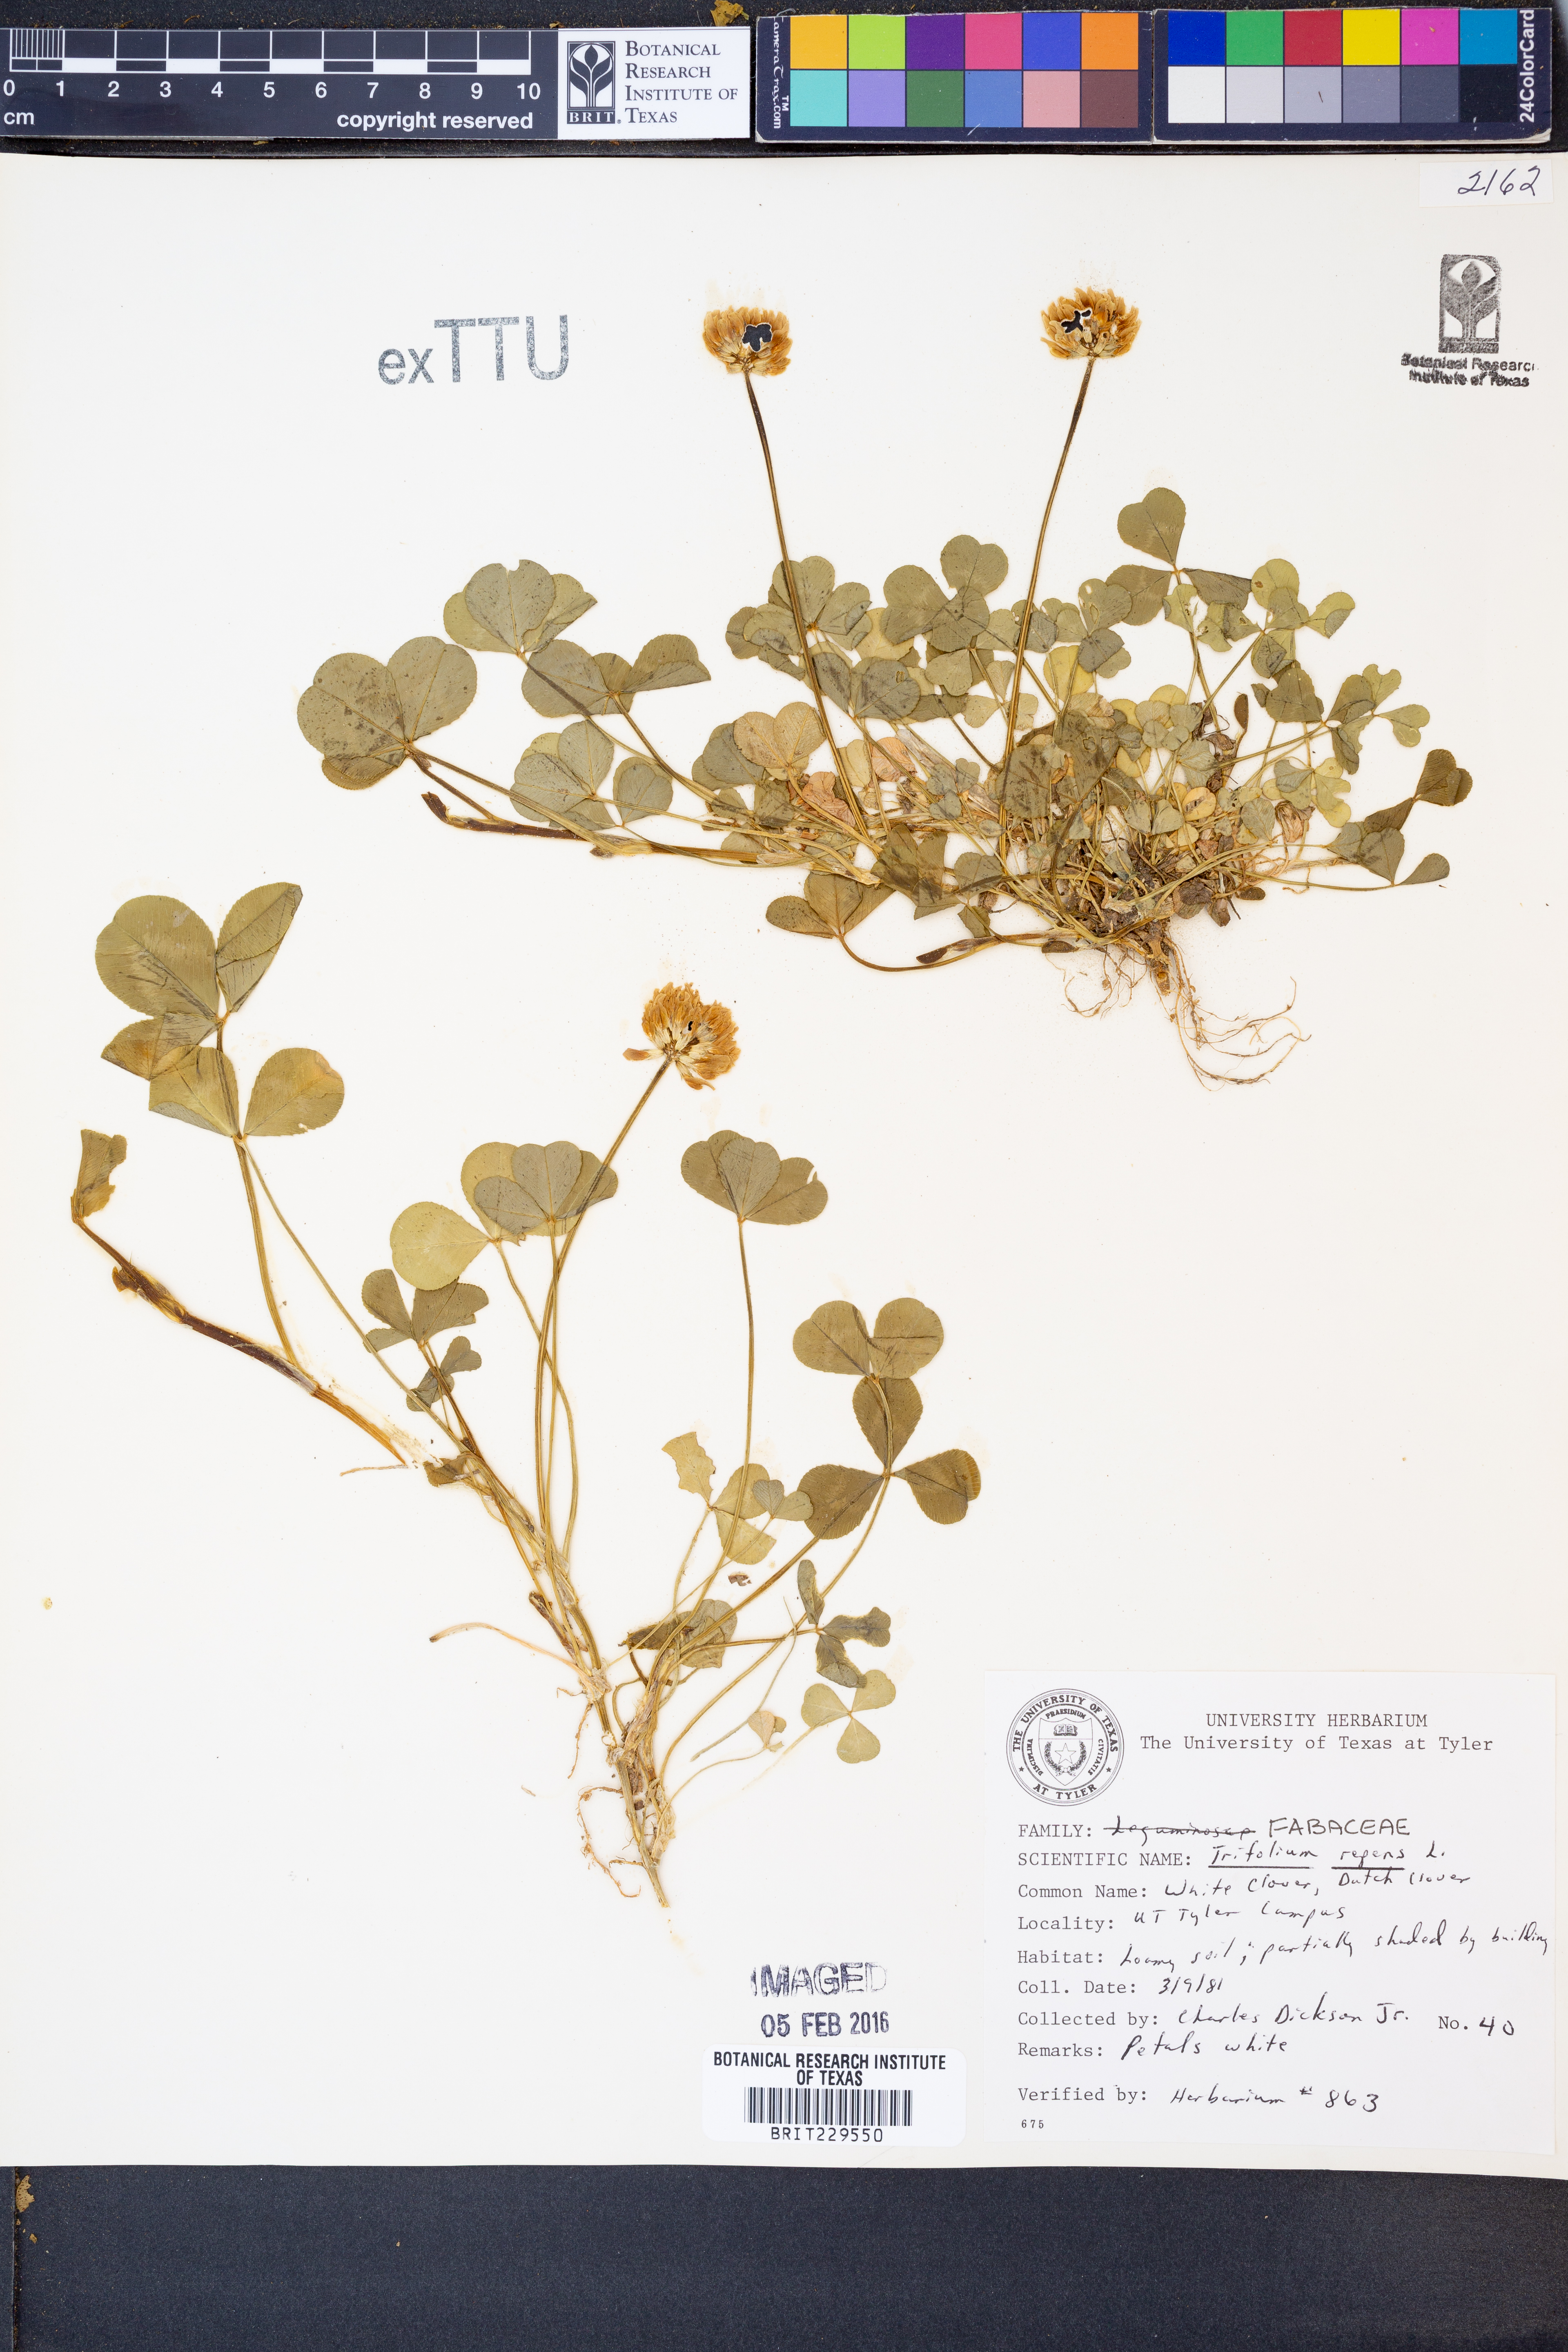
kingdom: Plantae
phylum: Tracheophyta
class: Magnoliopsida
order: Fabales
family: Fabaceae
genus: Trifolium
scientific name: Trifolium repens
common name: White clover
